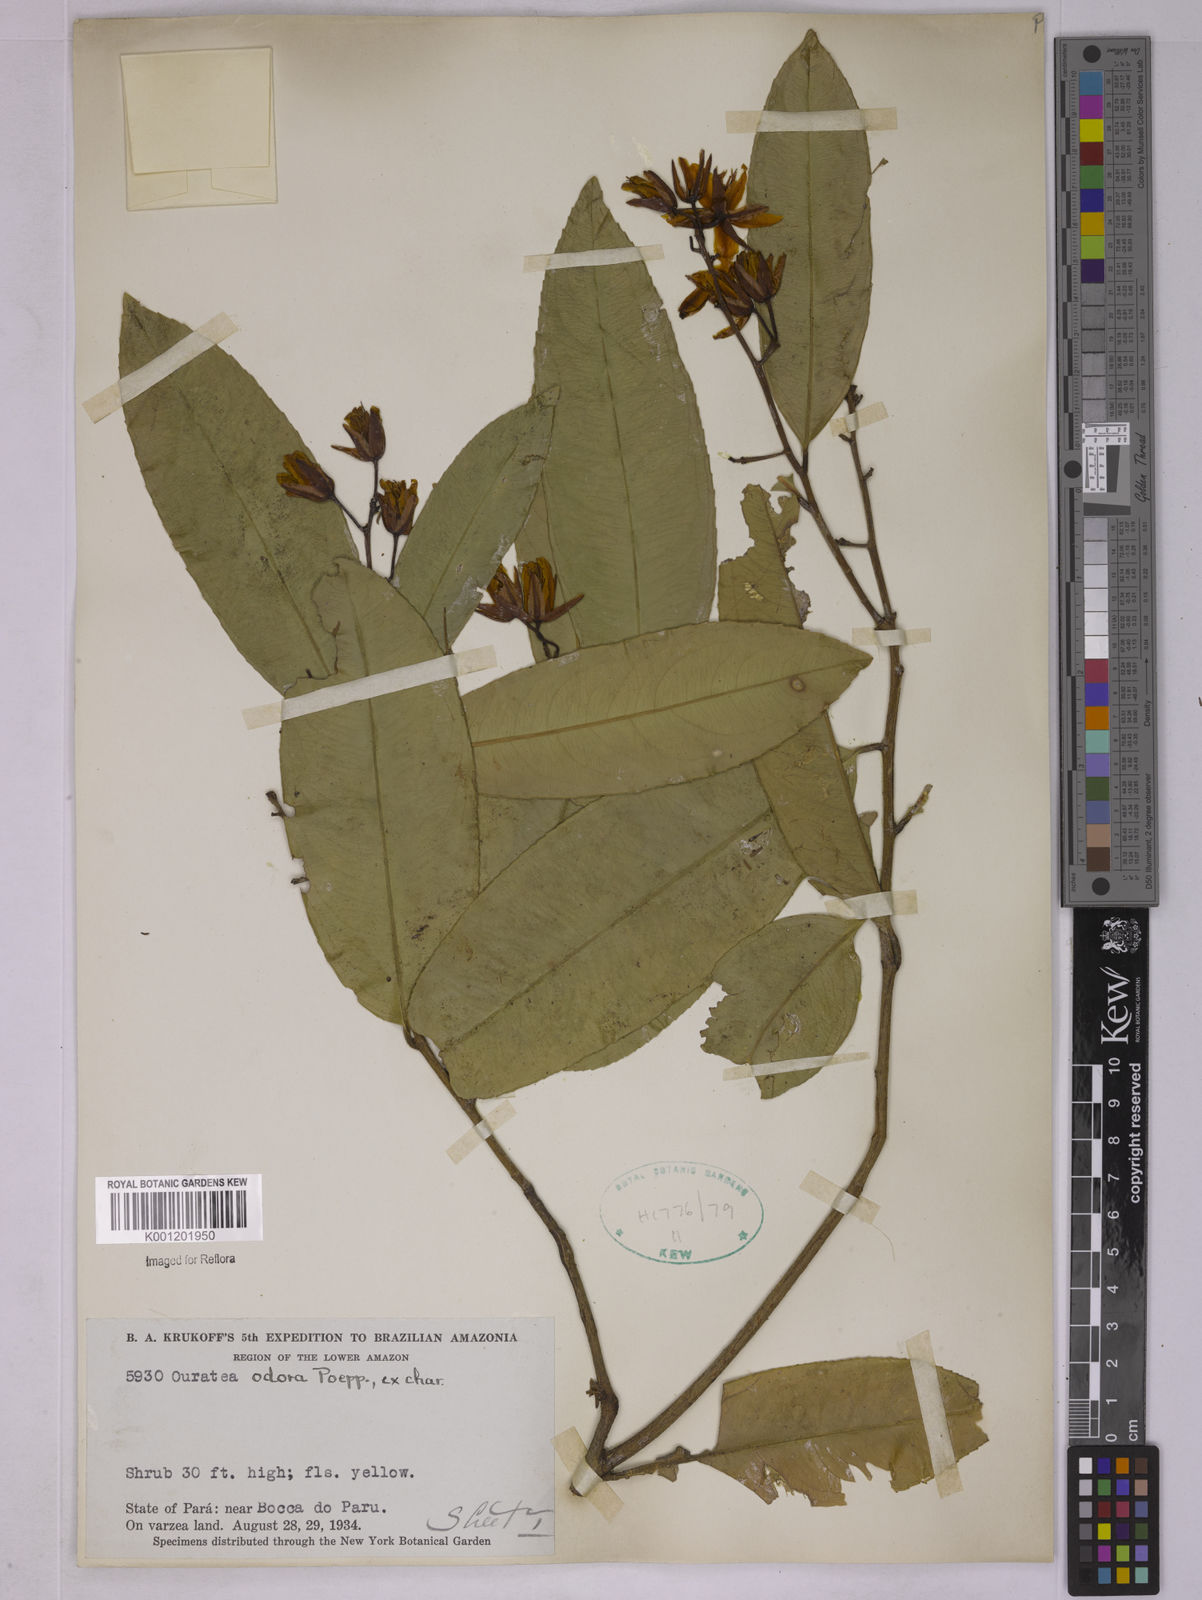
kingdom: Plantae
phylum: Tracheophyta
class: Magnoliopsida
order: Malpighiales
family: Ochnaceae
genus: Ouratea
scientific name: Ouratea superba
